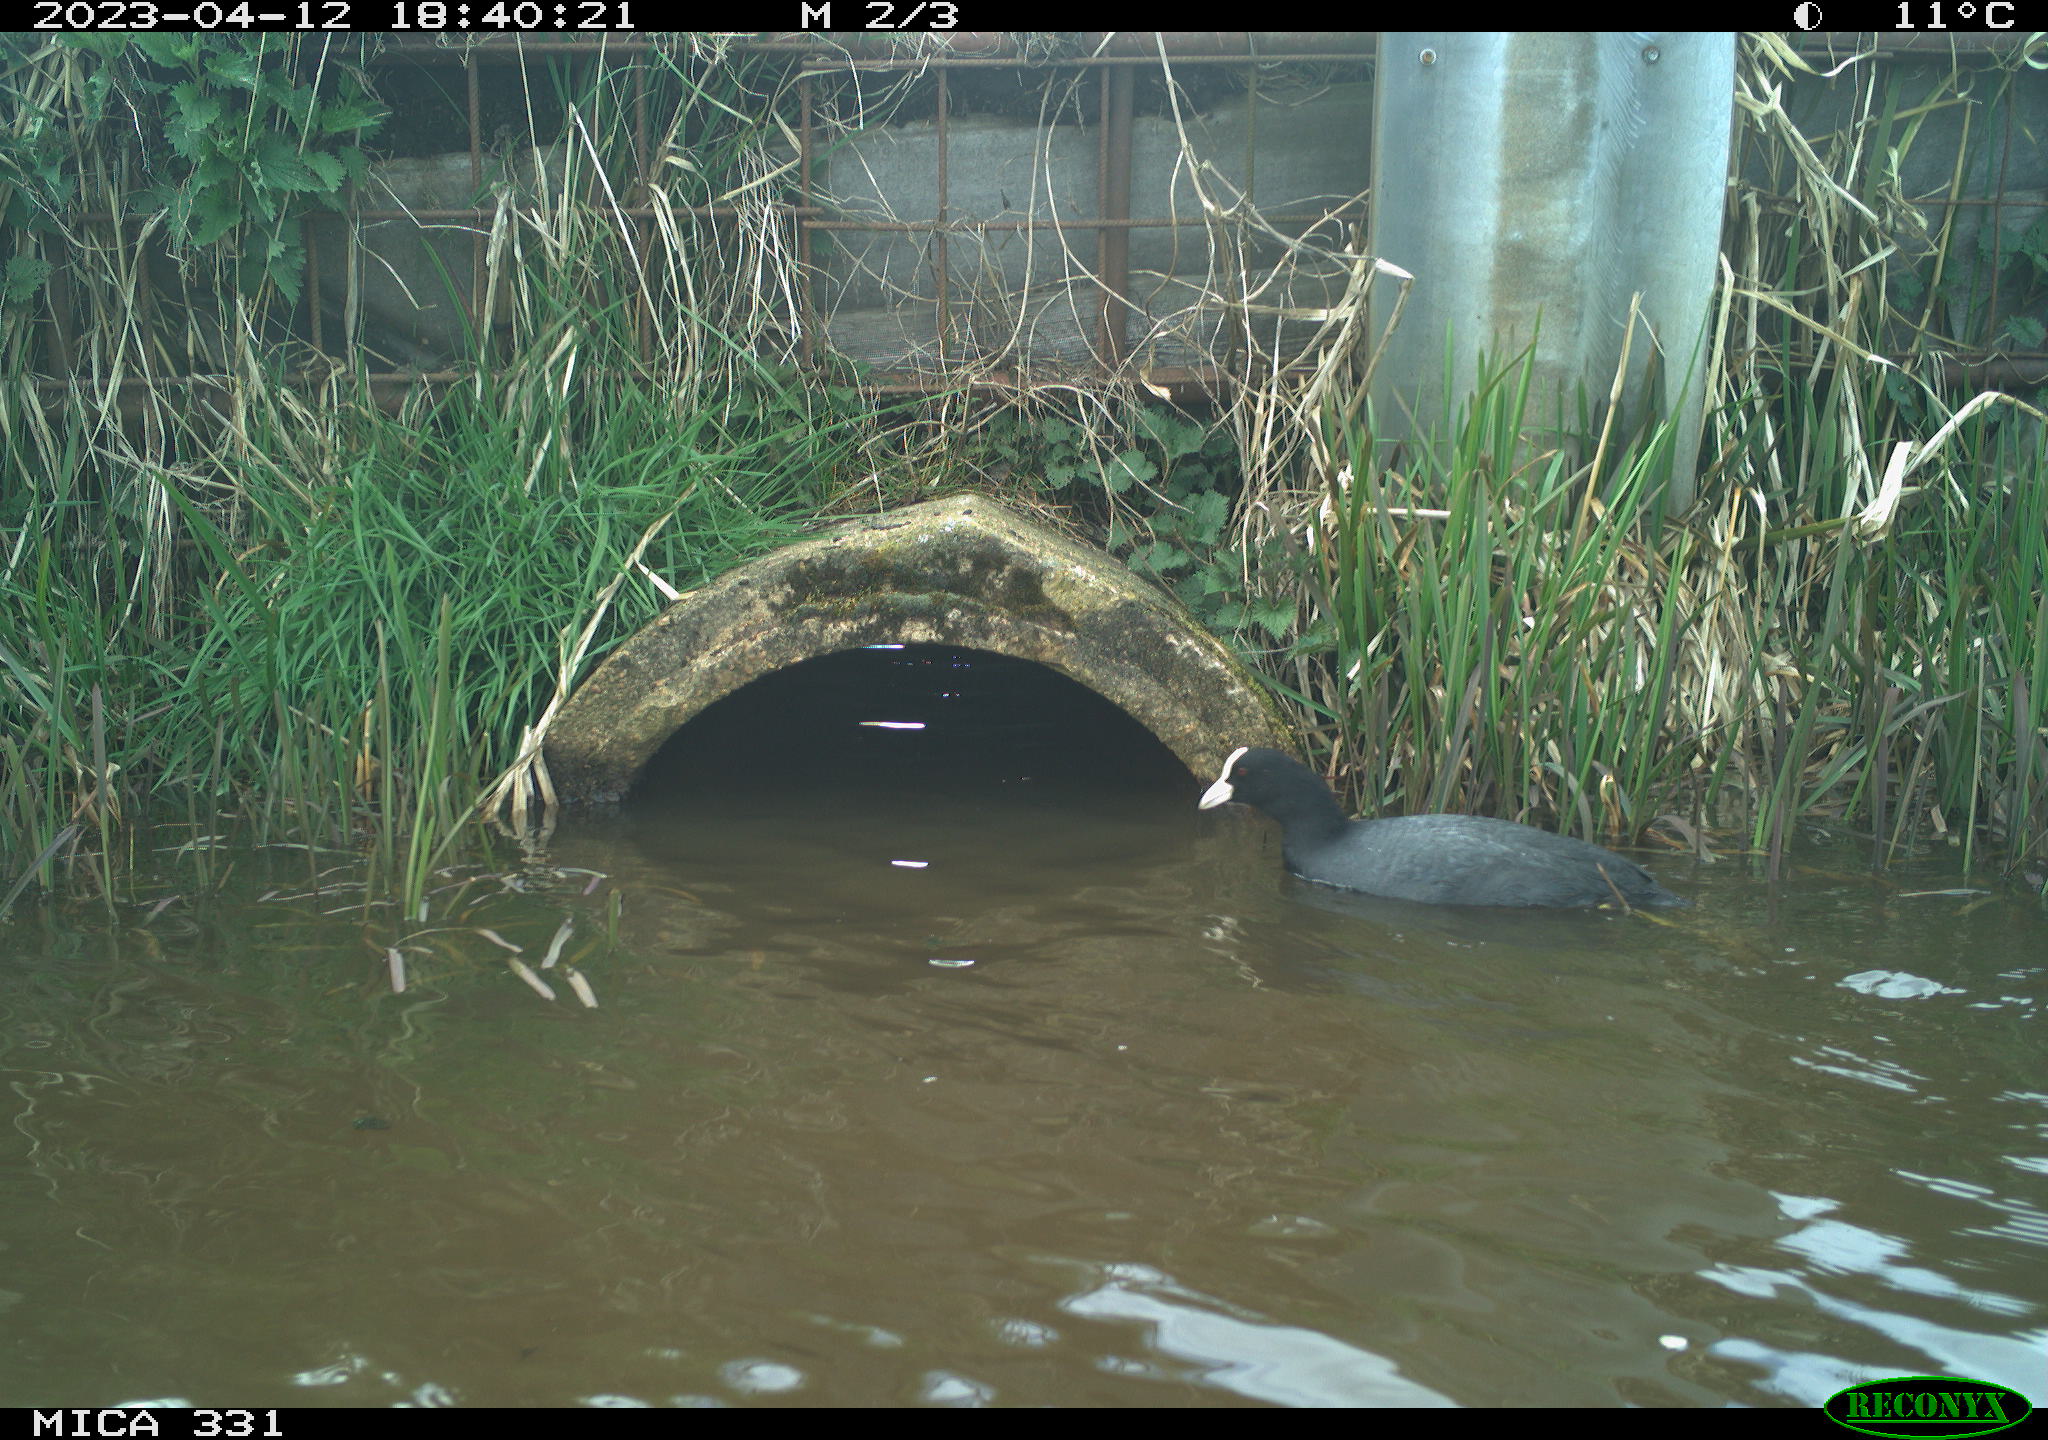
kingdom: Animalia
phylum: Chordata
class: Aves
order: Gruiformes
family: Rallidae
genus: Fulica
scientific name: Fulica atra
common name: Eurasian coot
